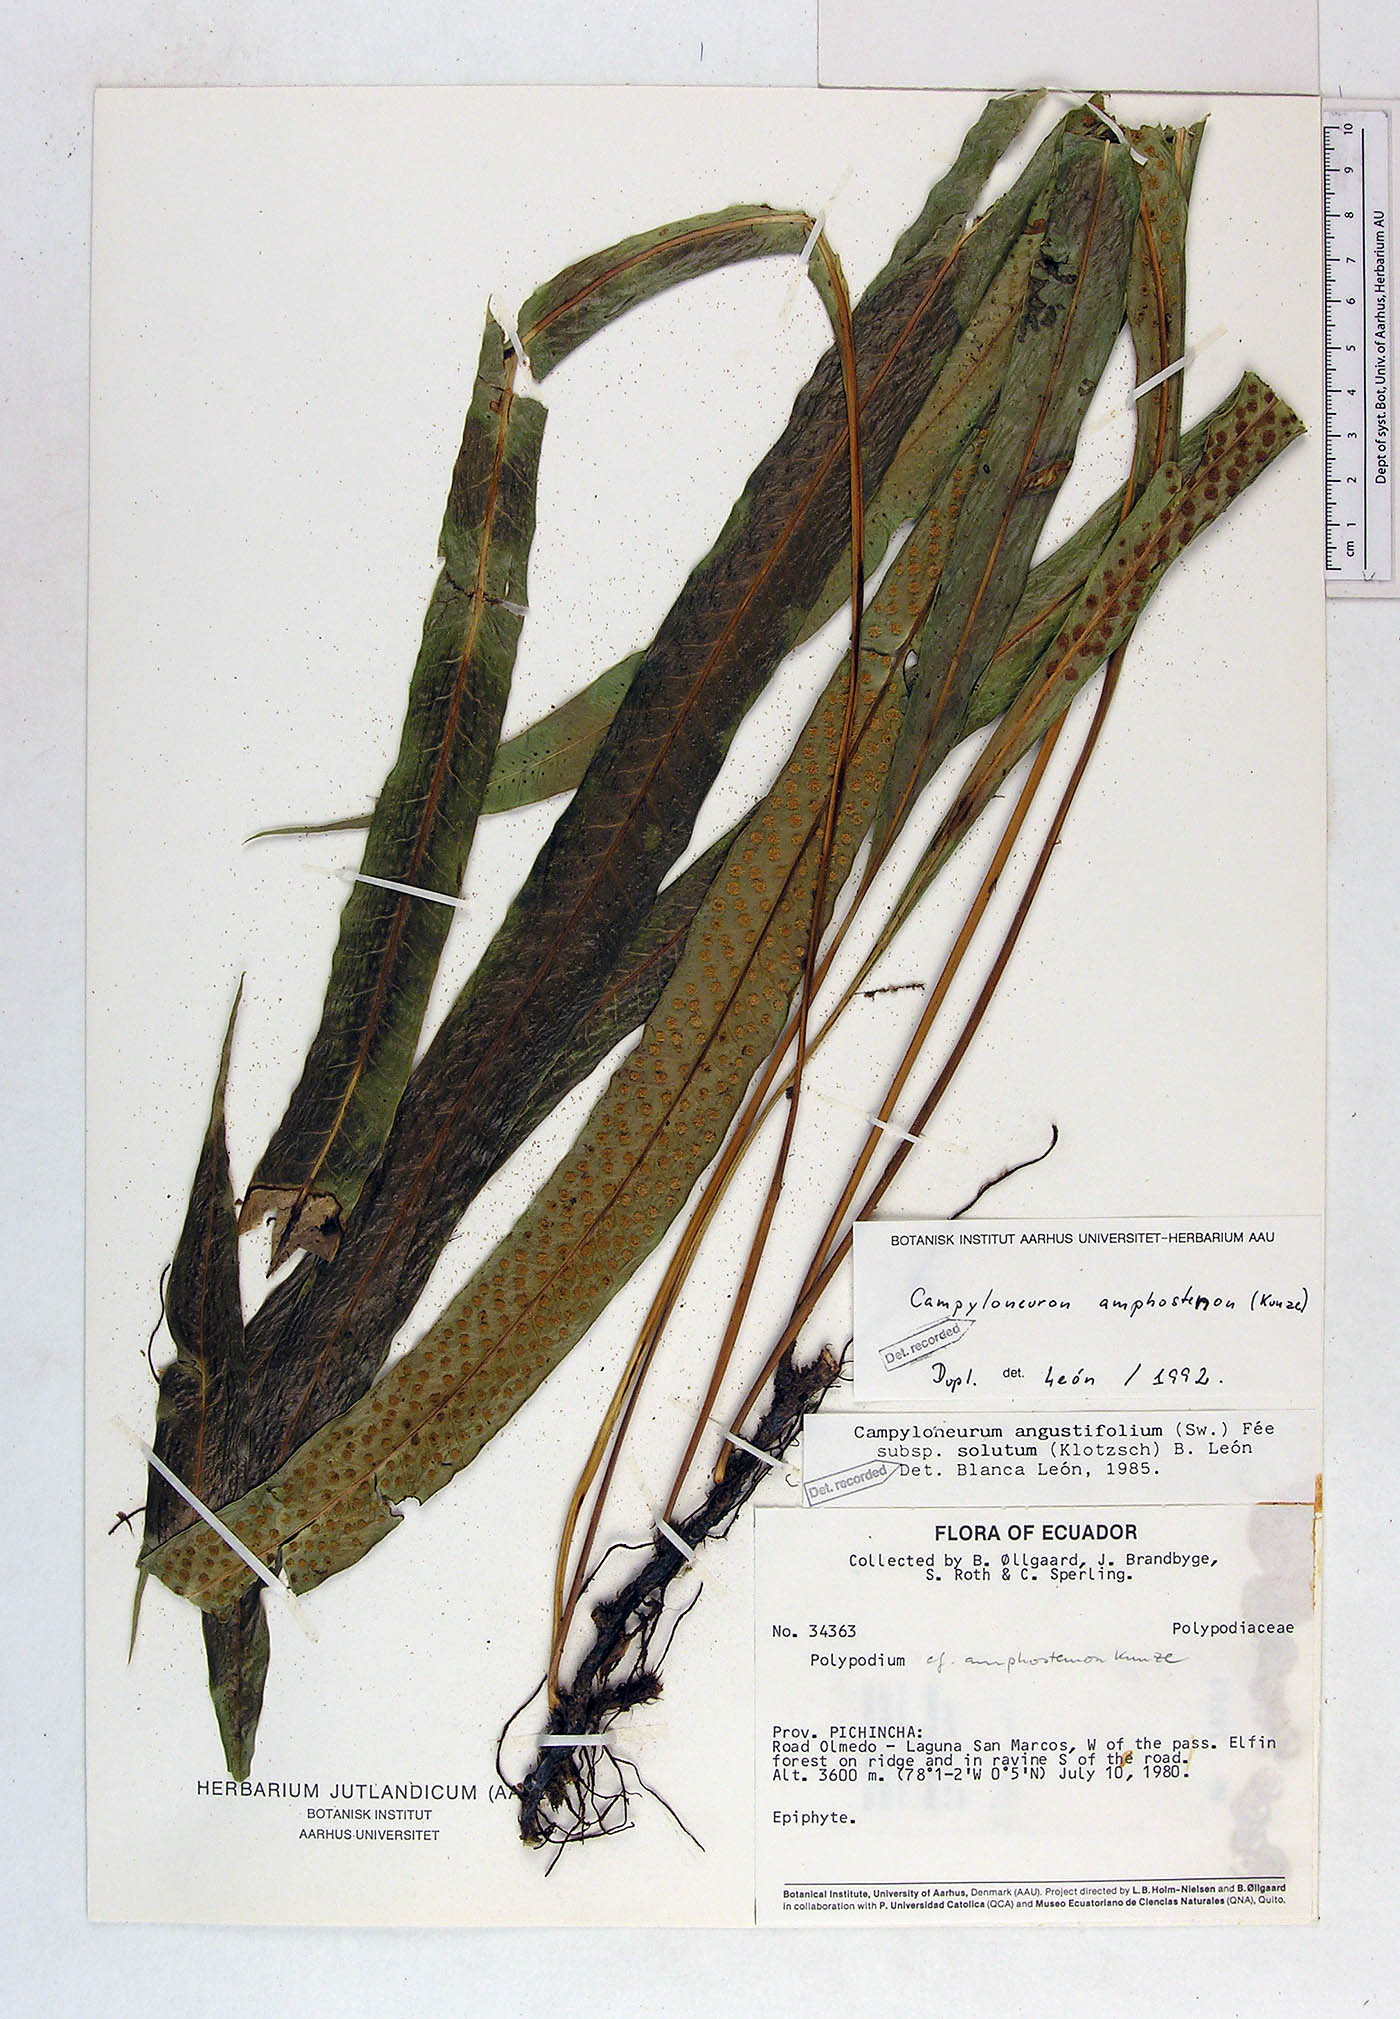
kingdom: Plantae
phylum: Tracheophyta
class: Polypodiopsida
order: Polypodiales
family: Polypodiaceae
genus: Campyloneurum
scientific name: Campyloneurum amphostenon
